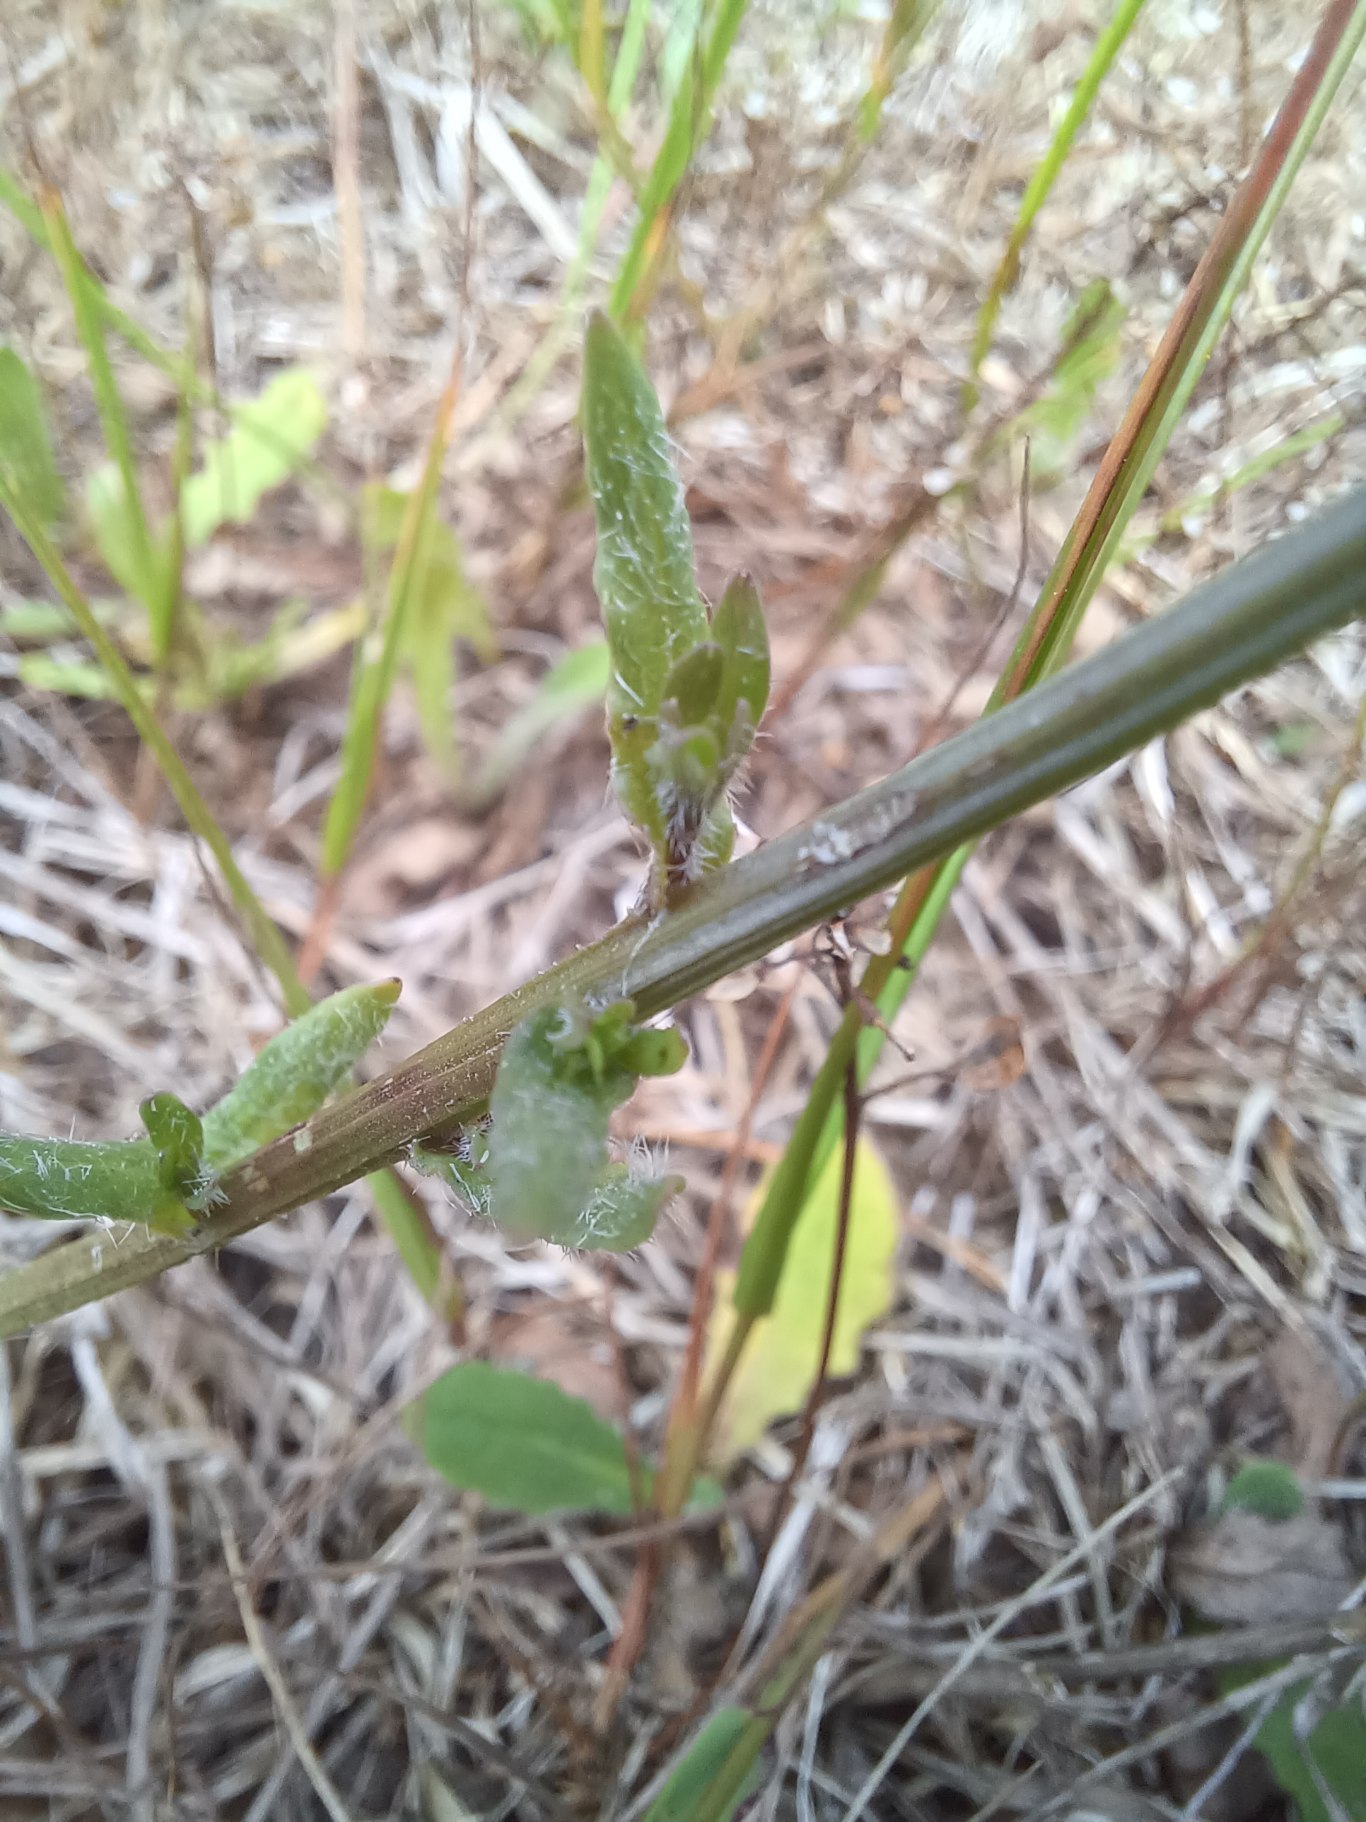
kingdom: Plantae
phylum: Tracheophyta
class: Magnoliopsida
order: Asterales
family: Campanulaceae
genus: Jasione
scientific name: Jasione montana
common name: Blåmunke
